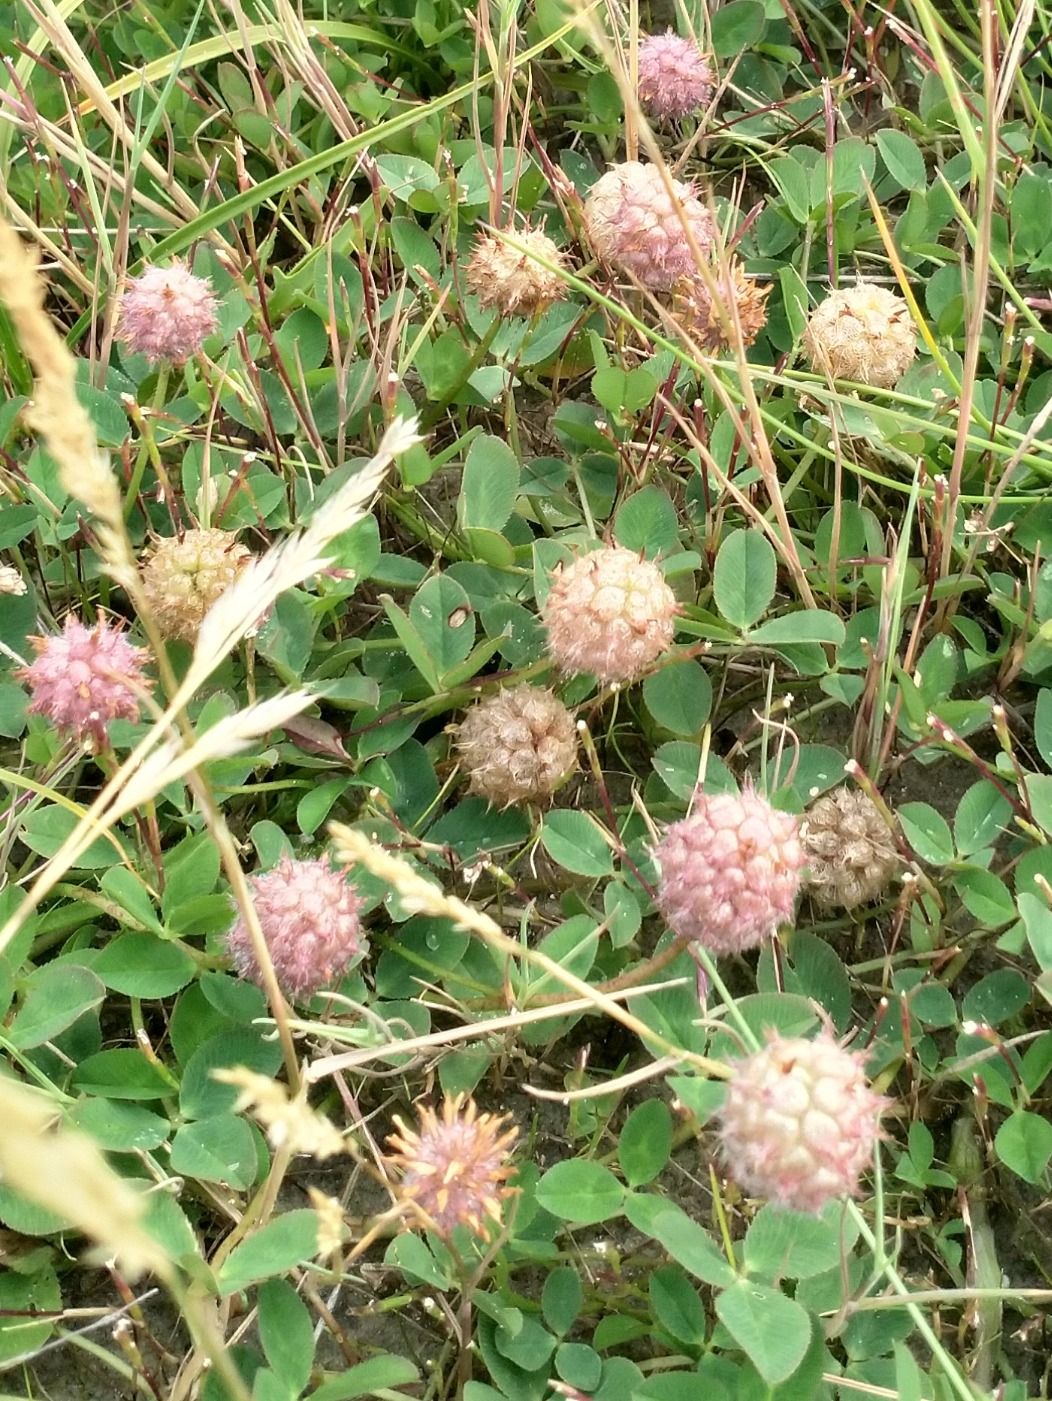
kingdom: Plantae
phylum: Tracheophyta
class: Magnoliopsida
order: Fabales
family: Fabaceae
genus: Trifolium
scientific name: Trifolium fragiferum
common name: Jordbær-kløver
